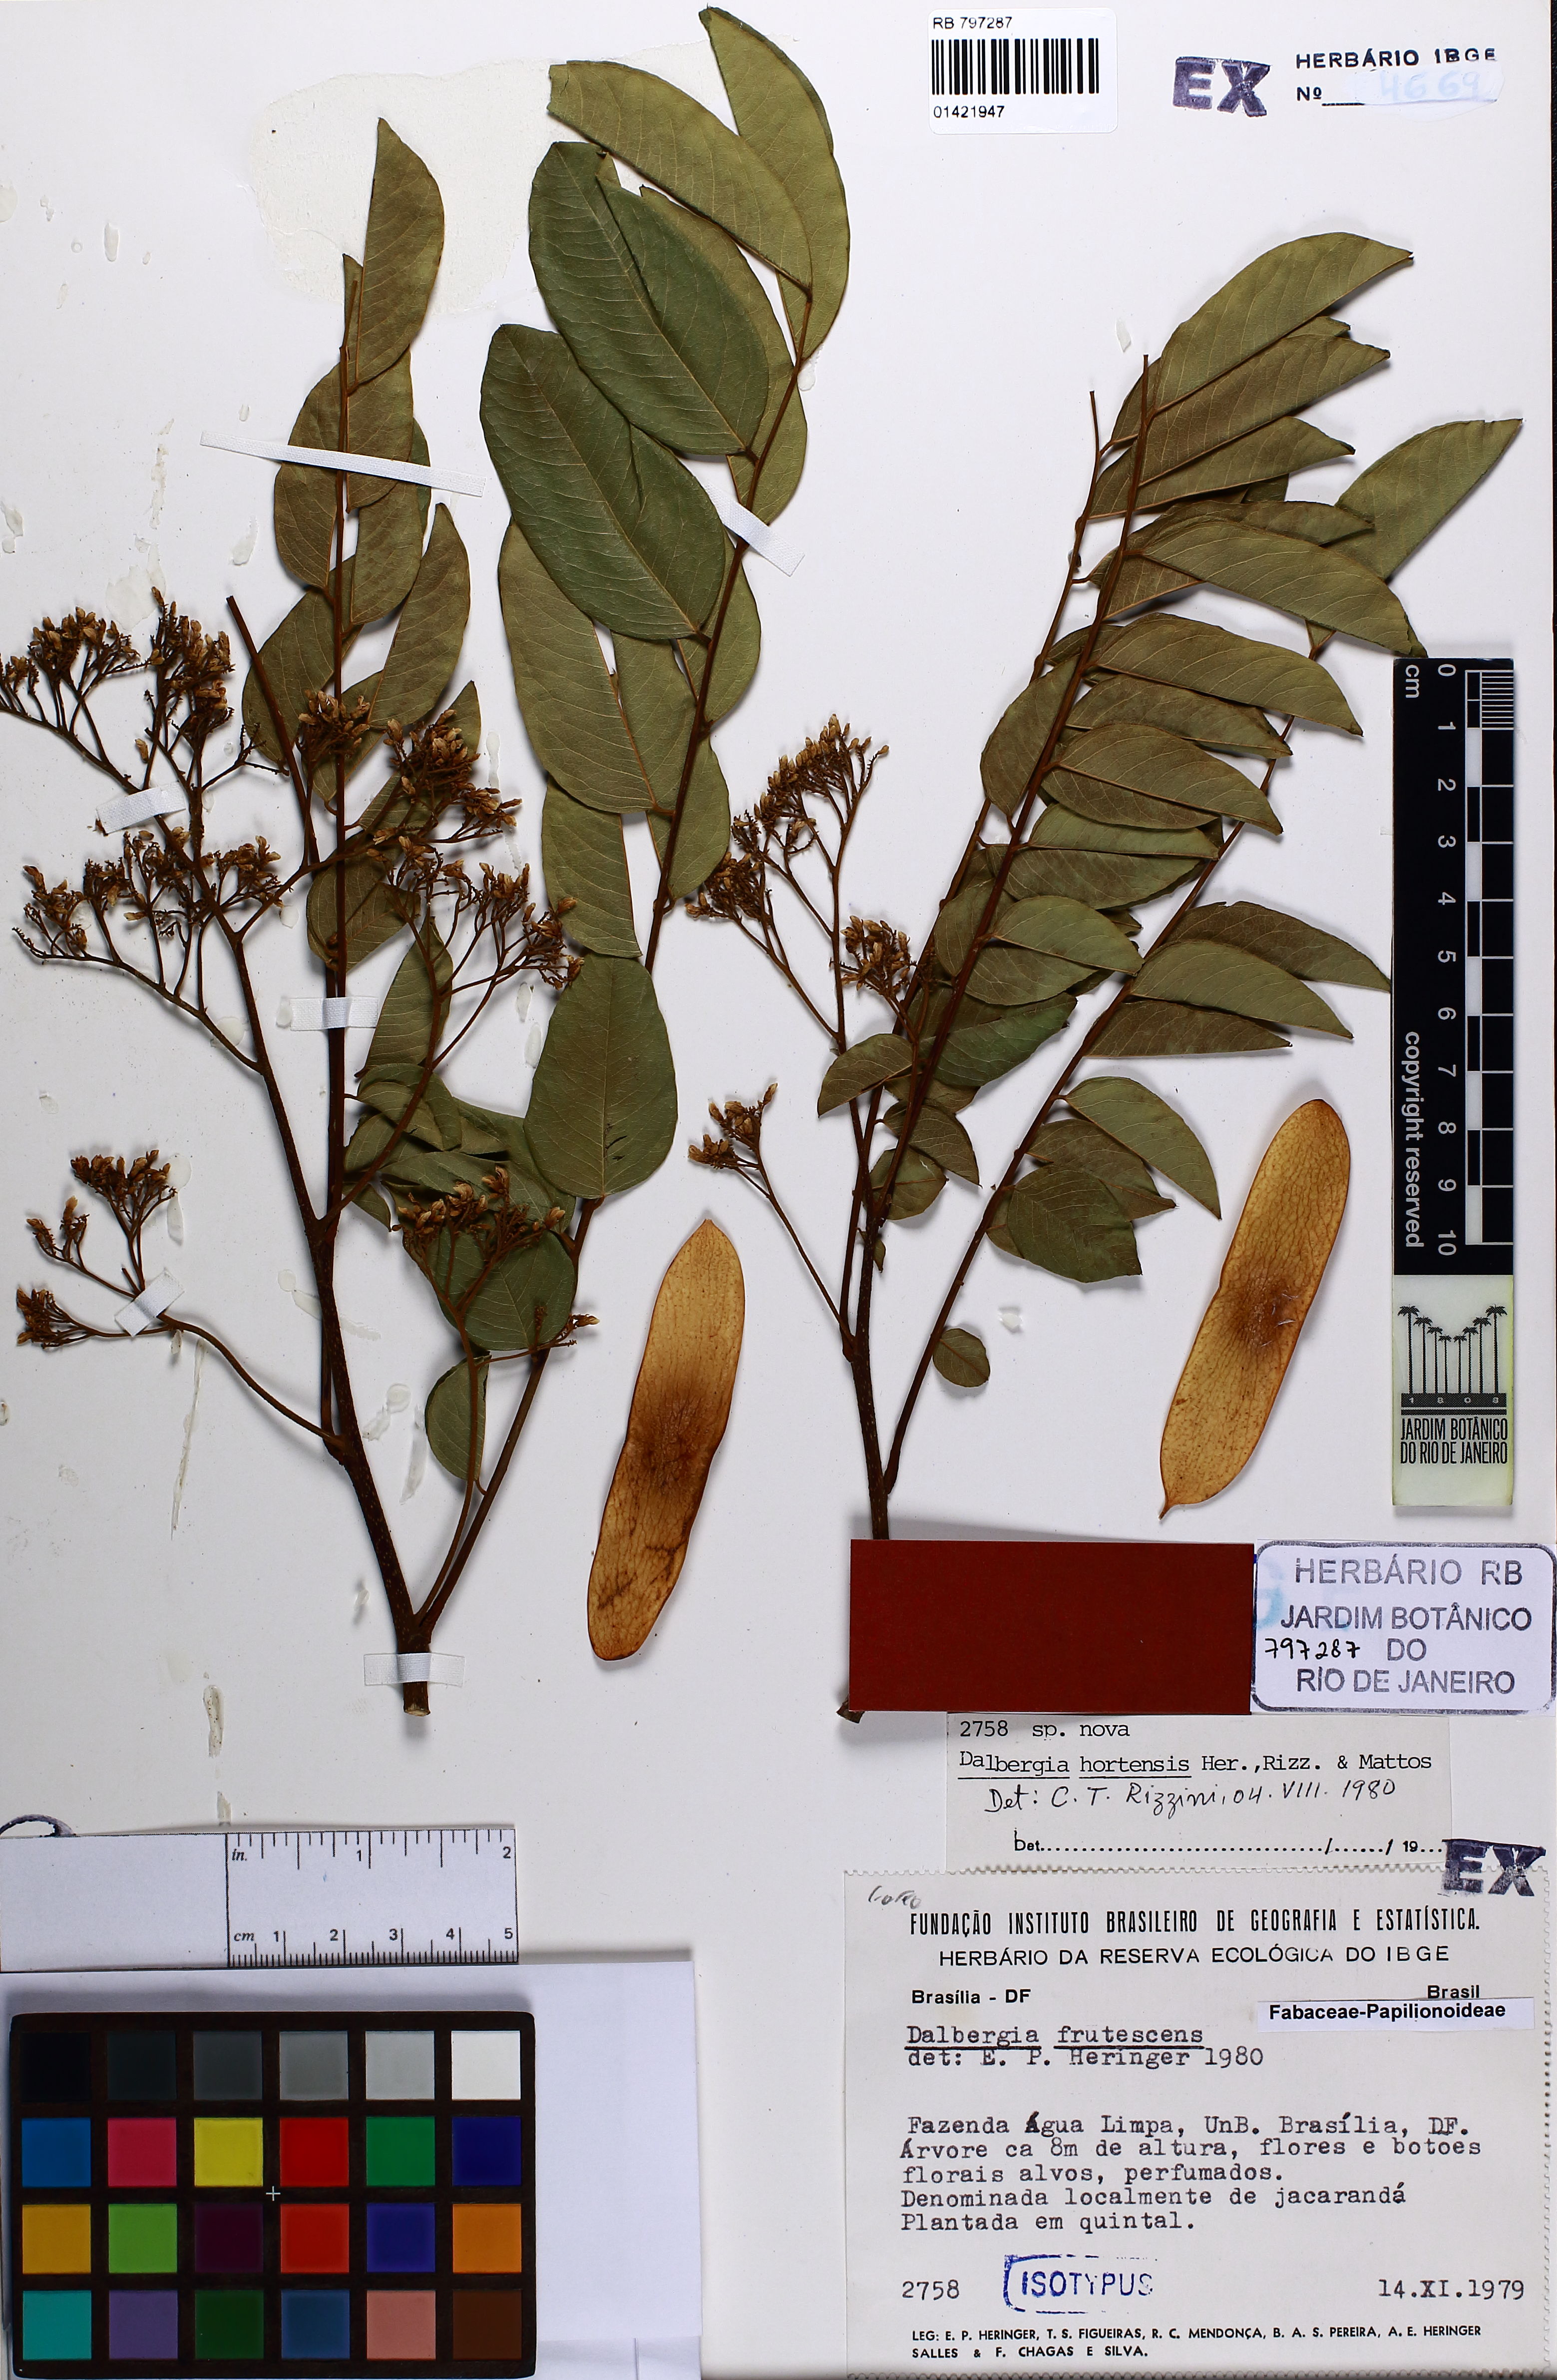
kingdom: Plantae
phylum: Tracheophyta
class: Magnoliopsida
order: Fabales
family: Fabaceae
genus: Dalbergia
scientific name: Dalbergia hortensis
